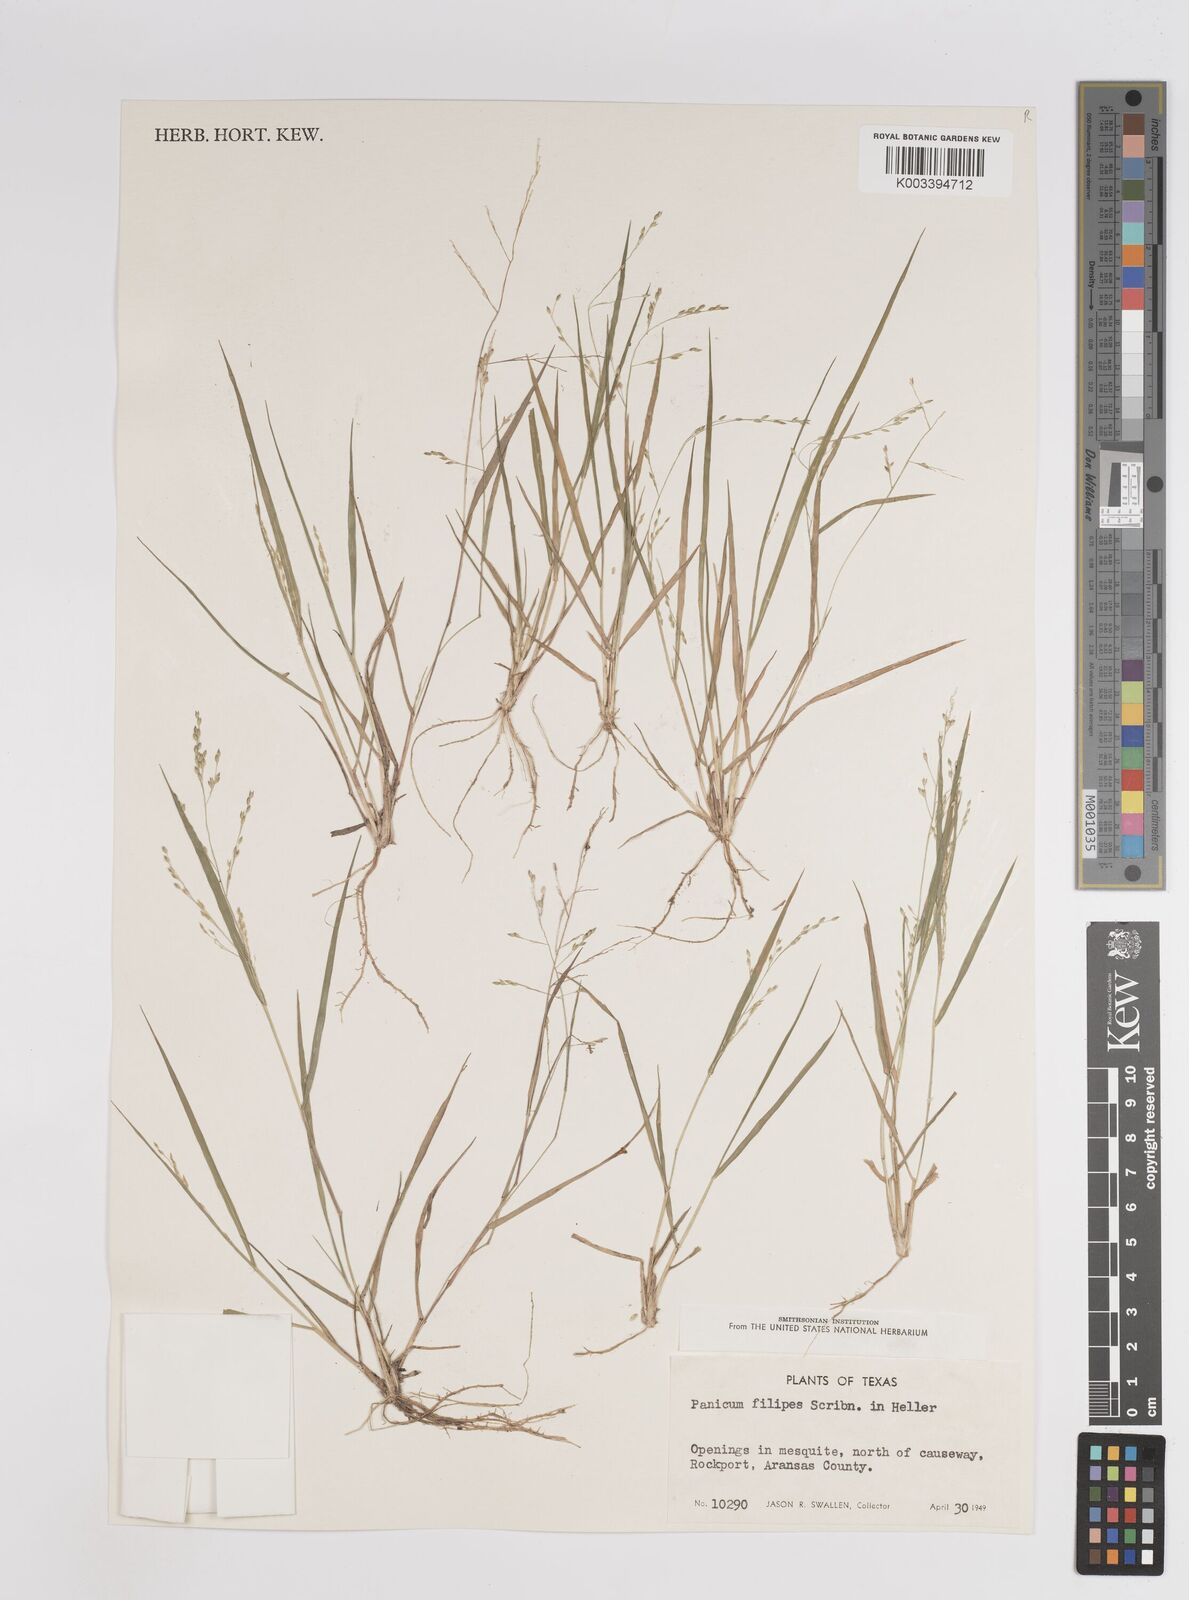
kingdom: Plantae
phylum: Tracheophyta
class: Liliopsida
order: Poales
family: Poaceae
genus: Panicum
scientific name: Panicum hallii
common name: Hall's witchgrass
